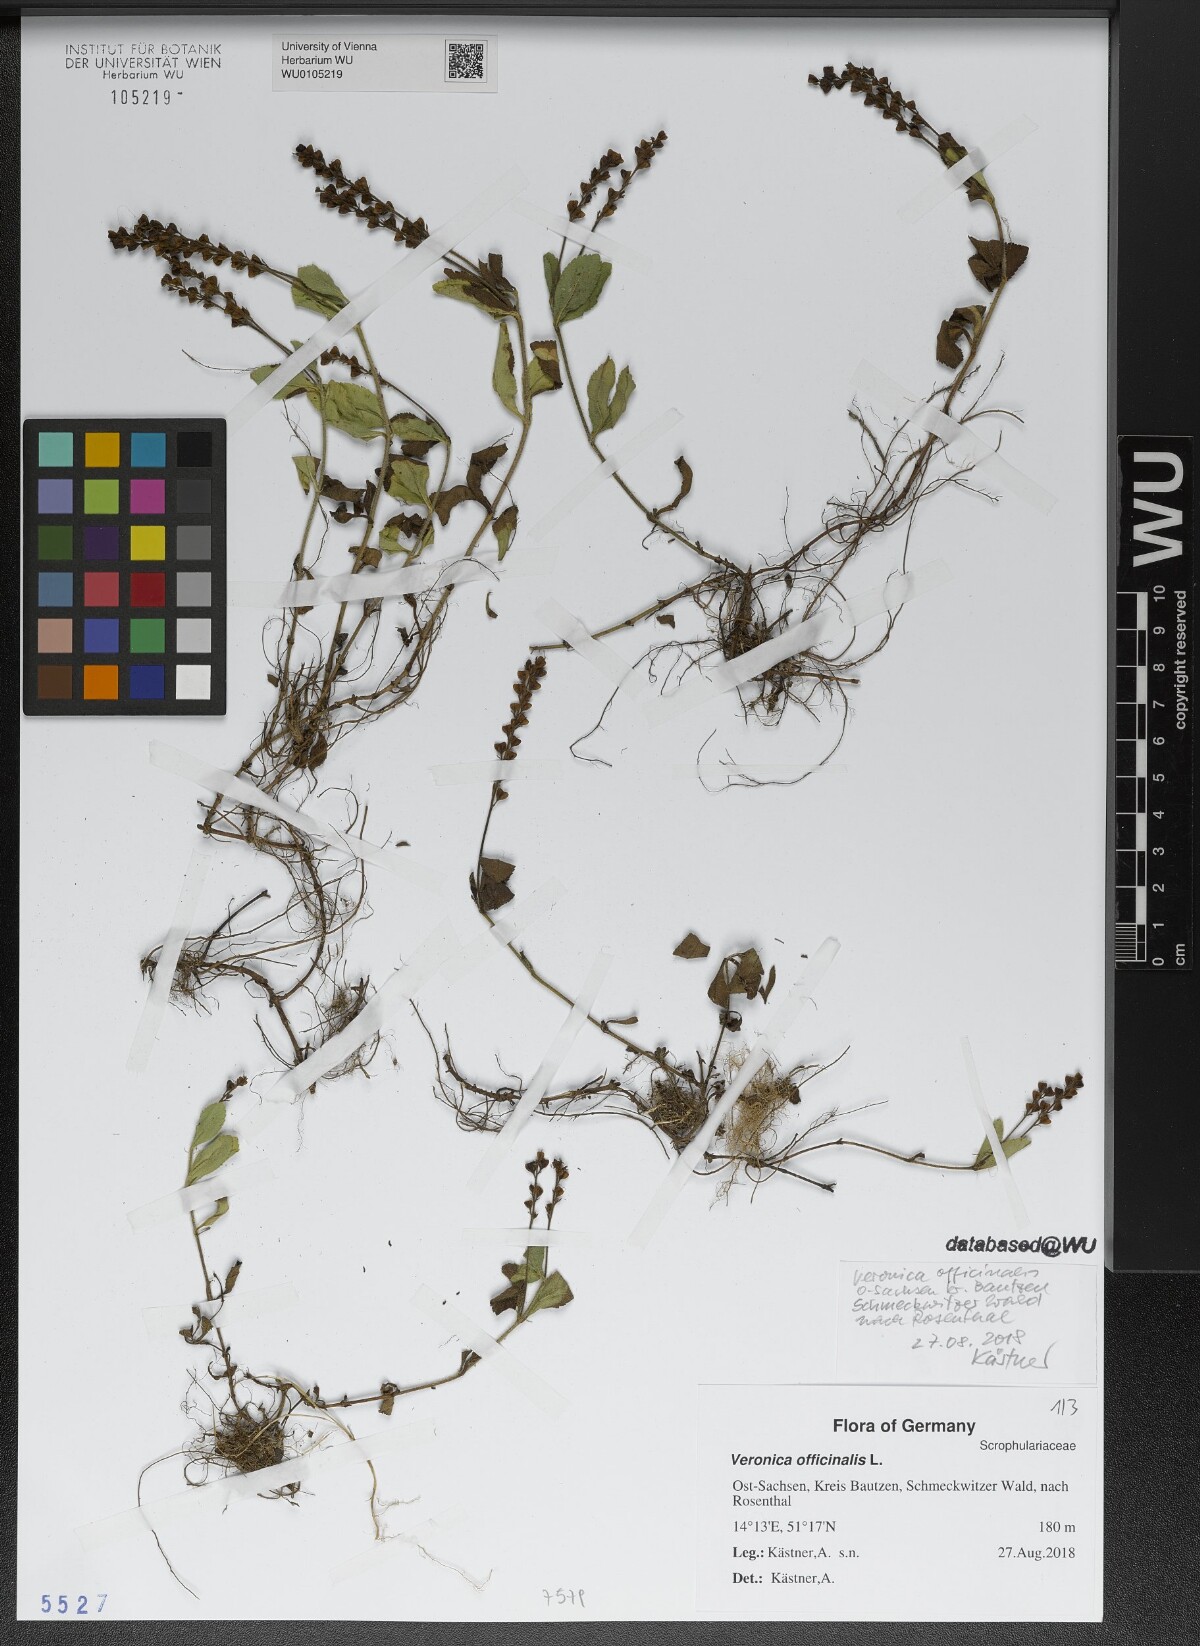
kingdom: Plantae
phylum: Tracheophyta
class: Magnoliopsida
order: Lamiales
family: Plantaginaceae
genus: Veronica
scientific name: Veronica officinalis
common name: Common speedwell
